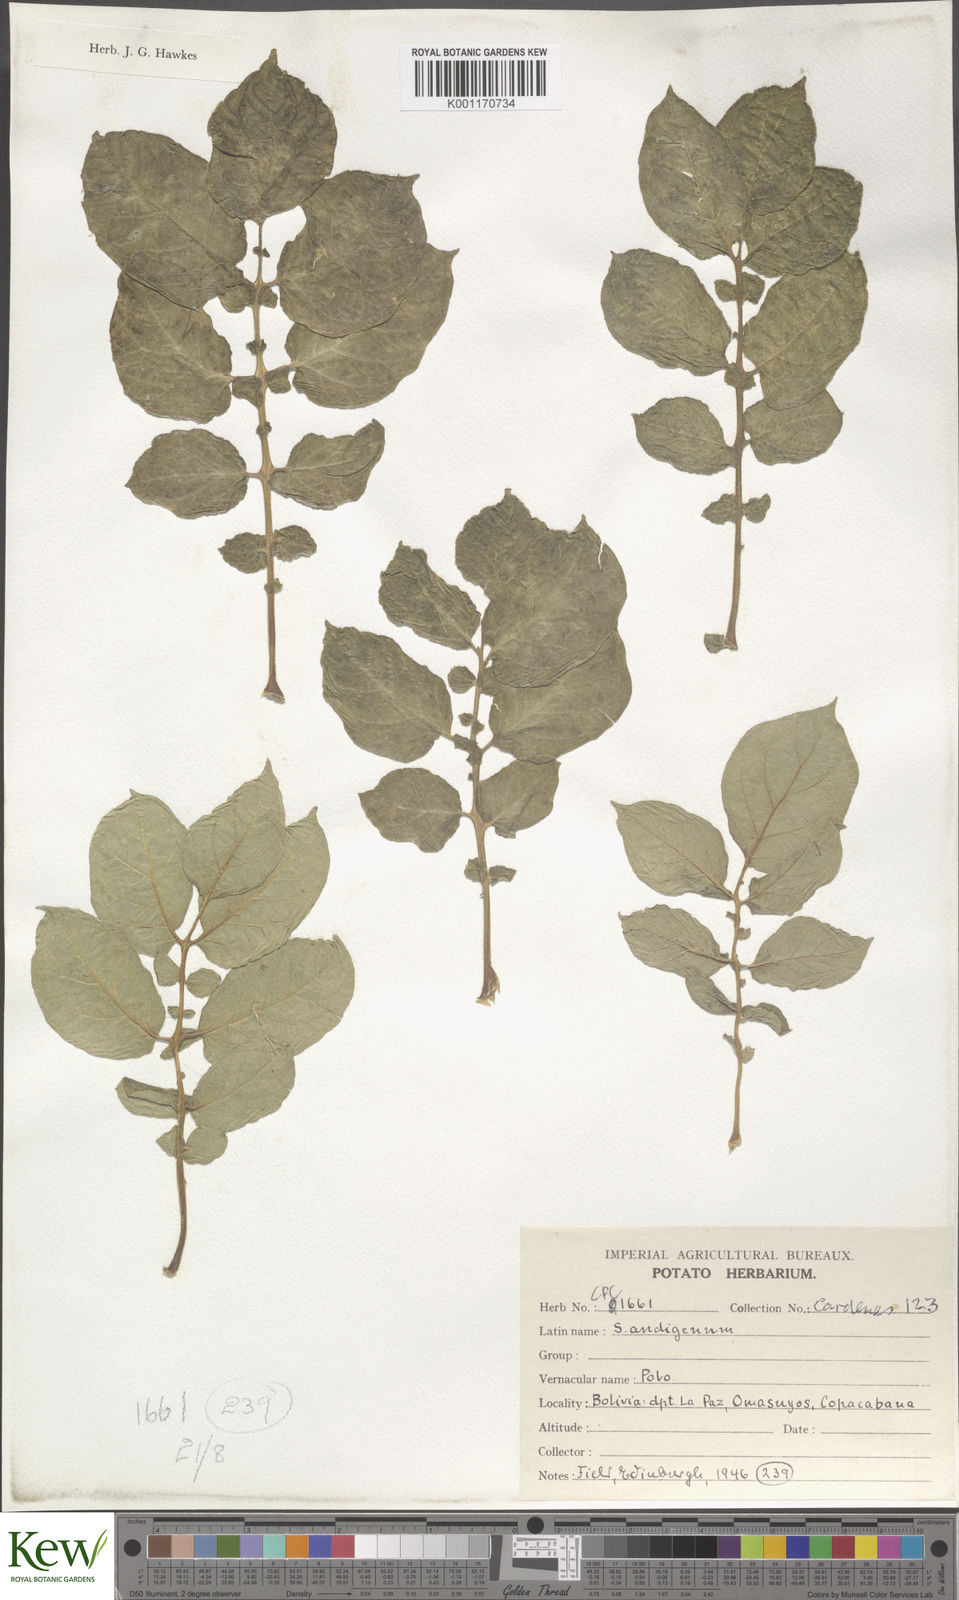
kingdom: Plantae
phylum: Tracheophyta
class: Magnoliopsida
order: Solanales
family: Solanaceae
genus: Solanum
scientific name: Solanum tuberosum
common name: Potato
